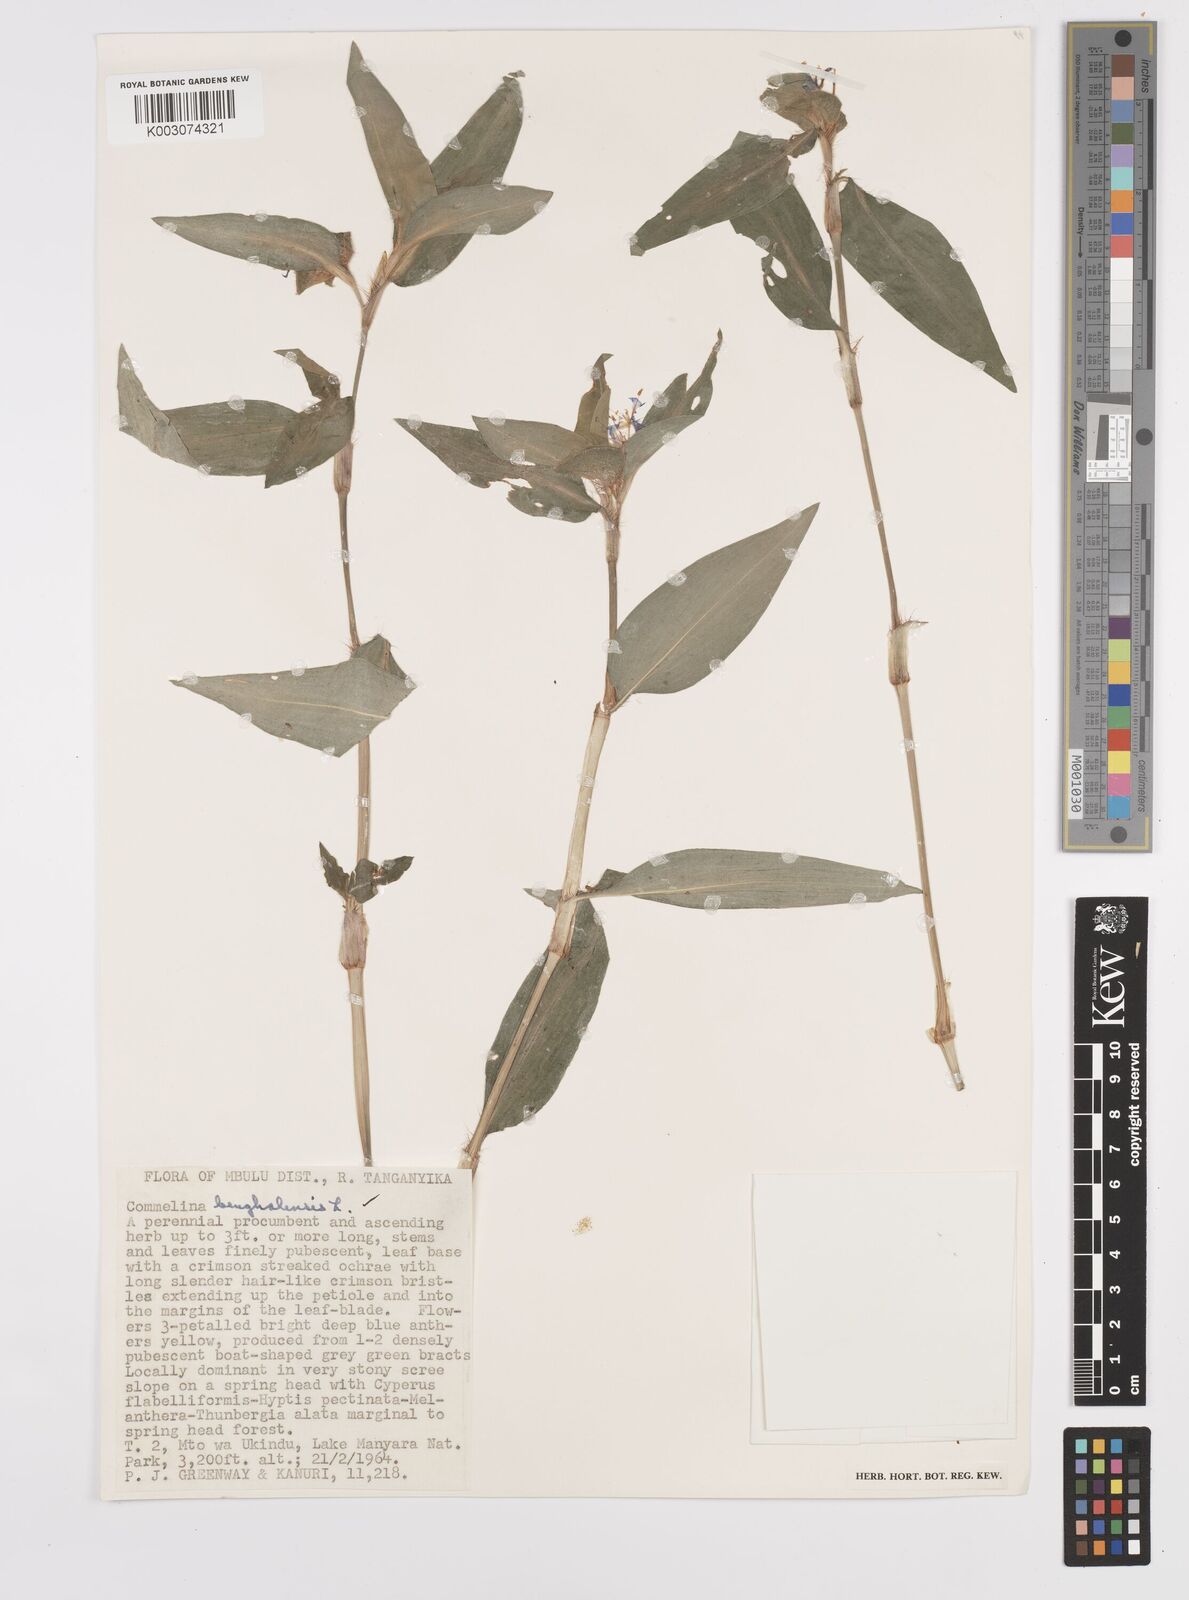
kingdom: Plantae
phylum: Tracheophyta
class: Liliopsida
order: Commelinales
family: Commelinaceae
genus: Commelina
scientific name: Commelina benghalensis
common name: Jio
